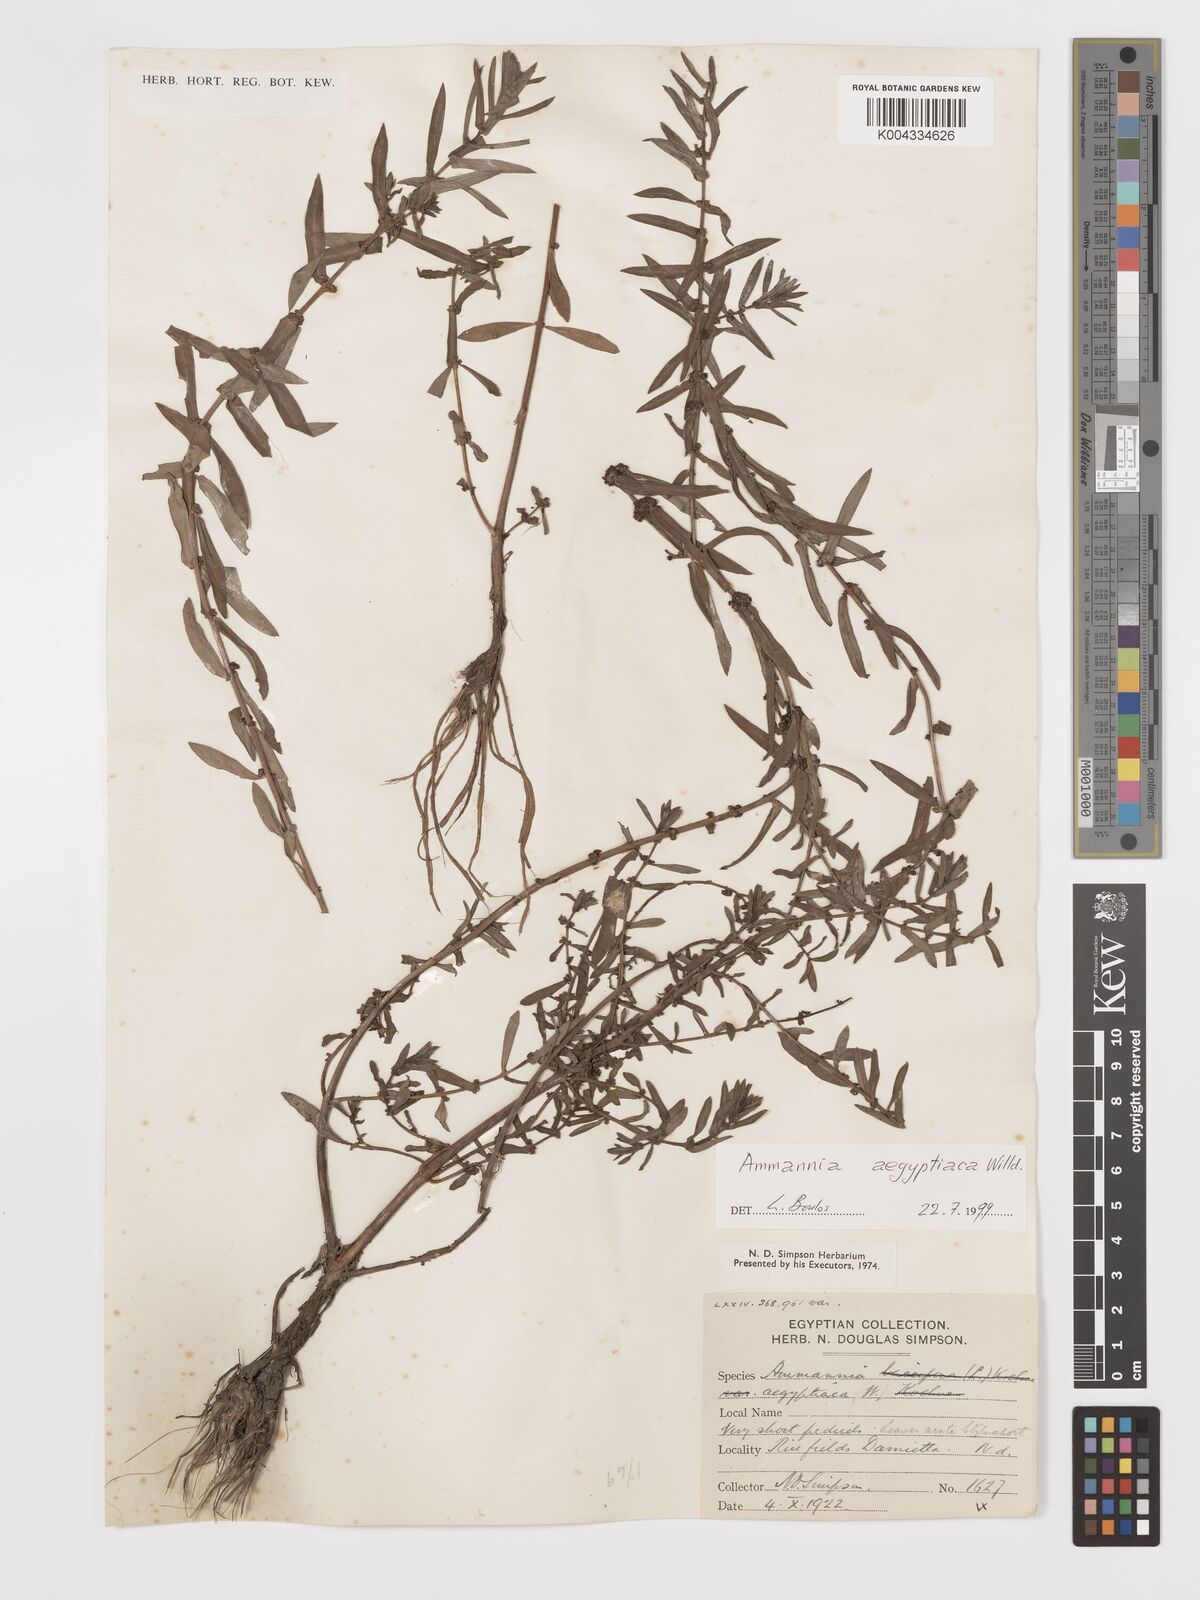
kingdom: Plantae
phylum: Tracheophyta
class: Magnoliopsida
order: Myrtales
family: Lythraceae
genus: Ammannia
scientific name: Ammannia
